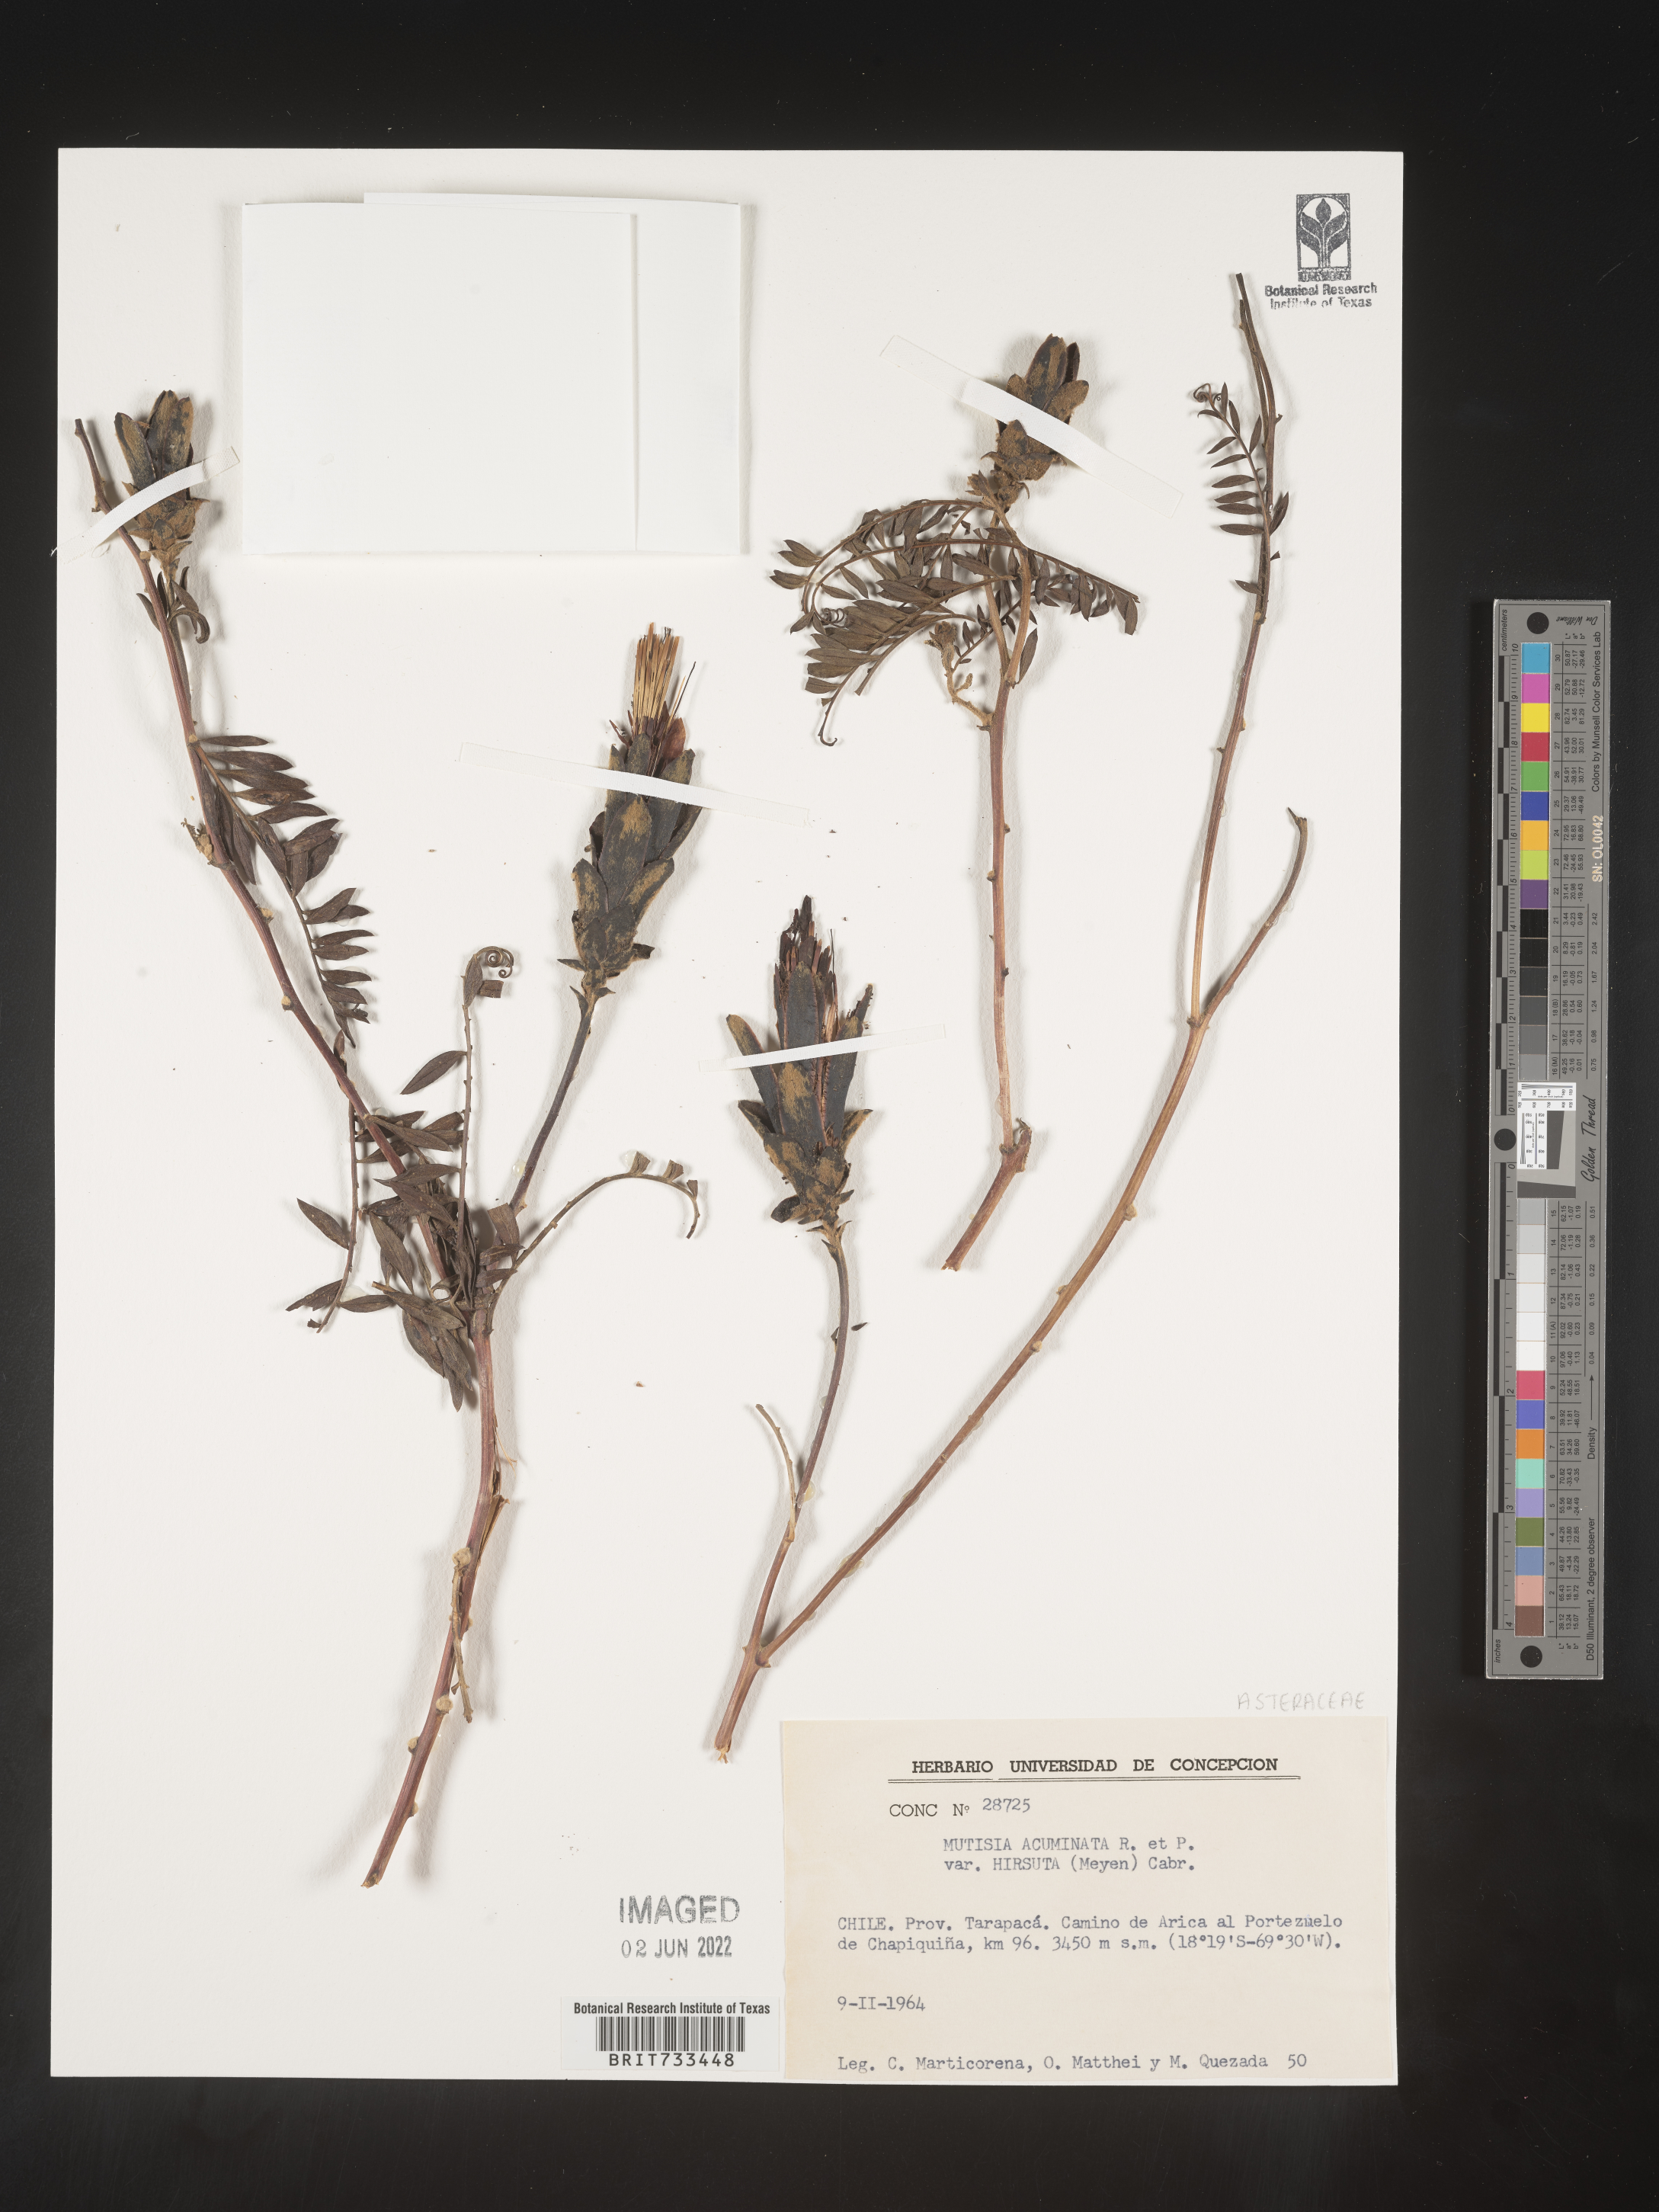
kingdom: Plantae
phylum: Tracheophyta
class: Magnoliopsida
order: Asterales
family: Asteraceae
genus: Mutisia
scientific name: Mutisia
